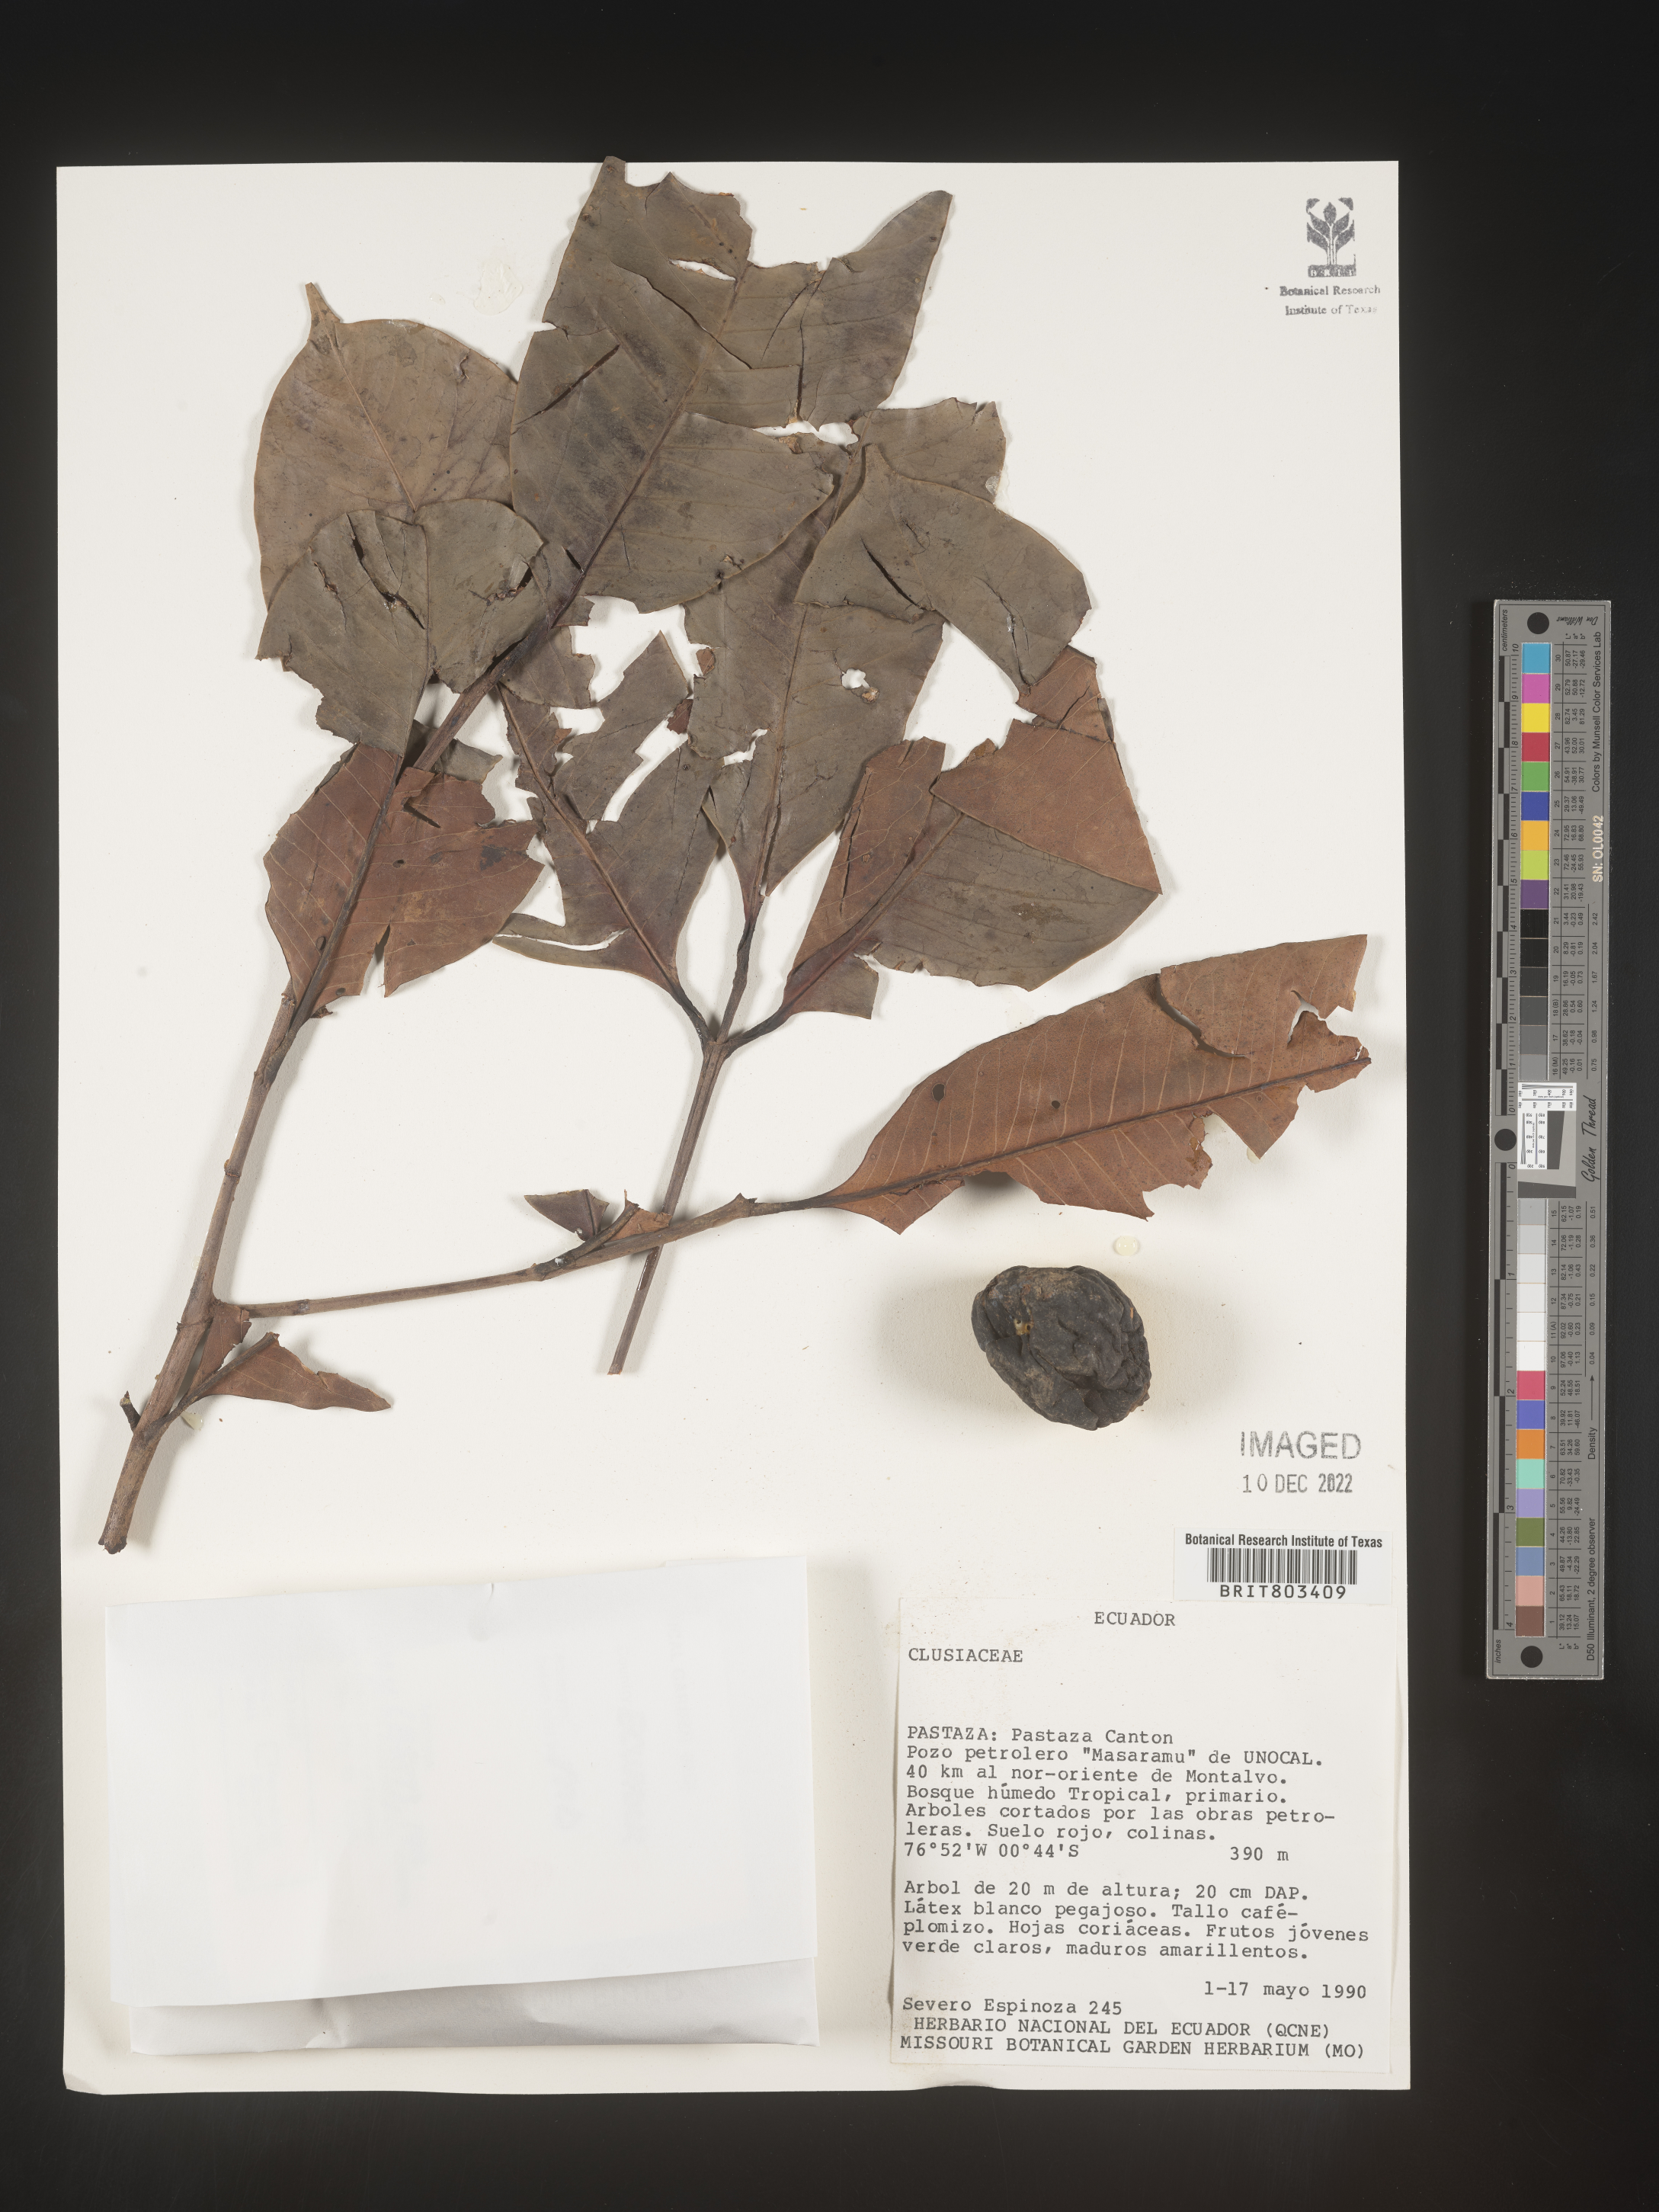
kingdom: Plantae
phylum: Tracheophyta
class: Magnoliopsida
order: Malpighiales
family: Clusiaceae
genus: Tovomita
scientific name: Tovomita
